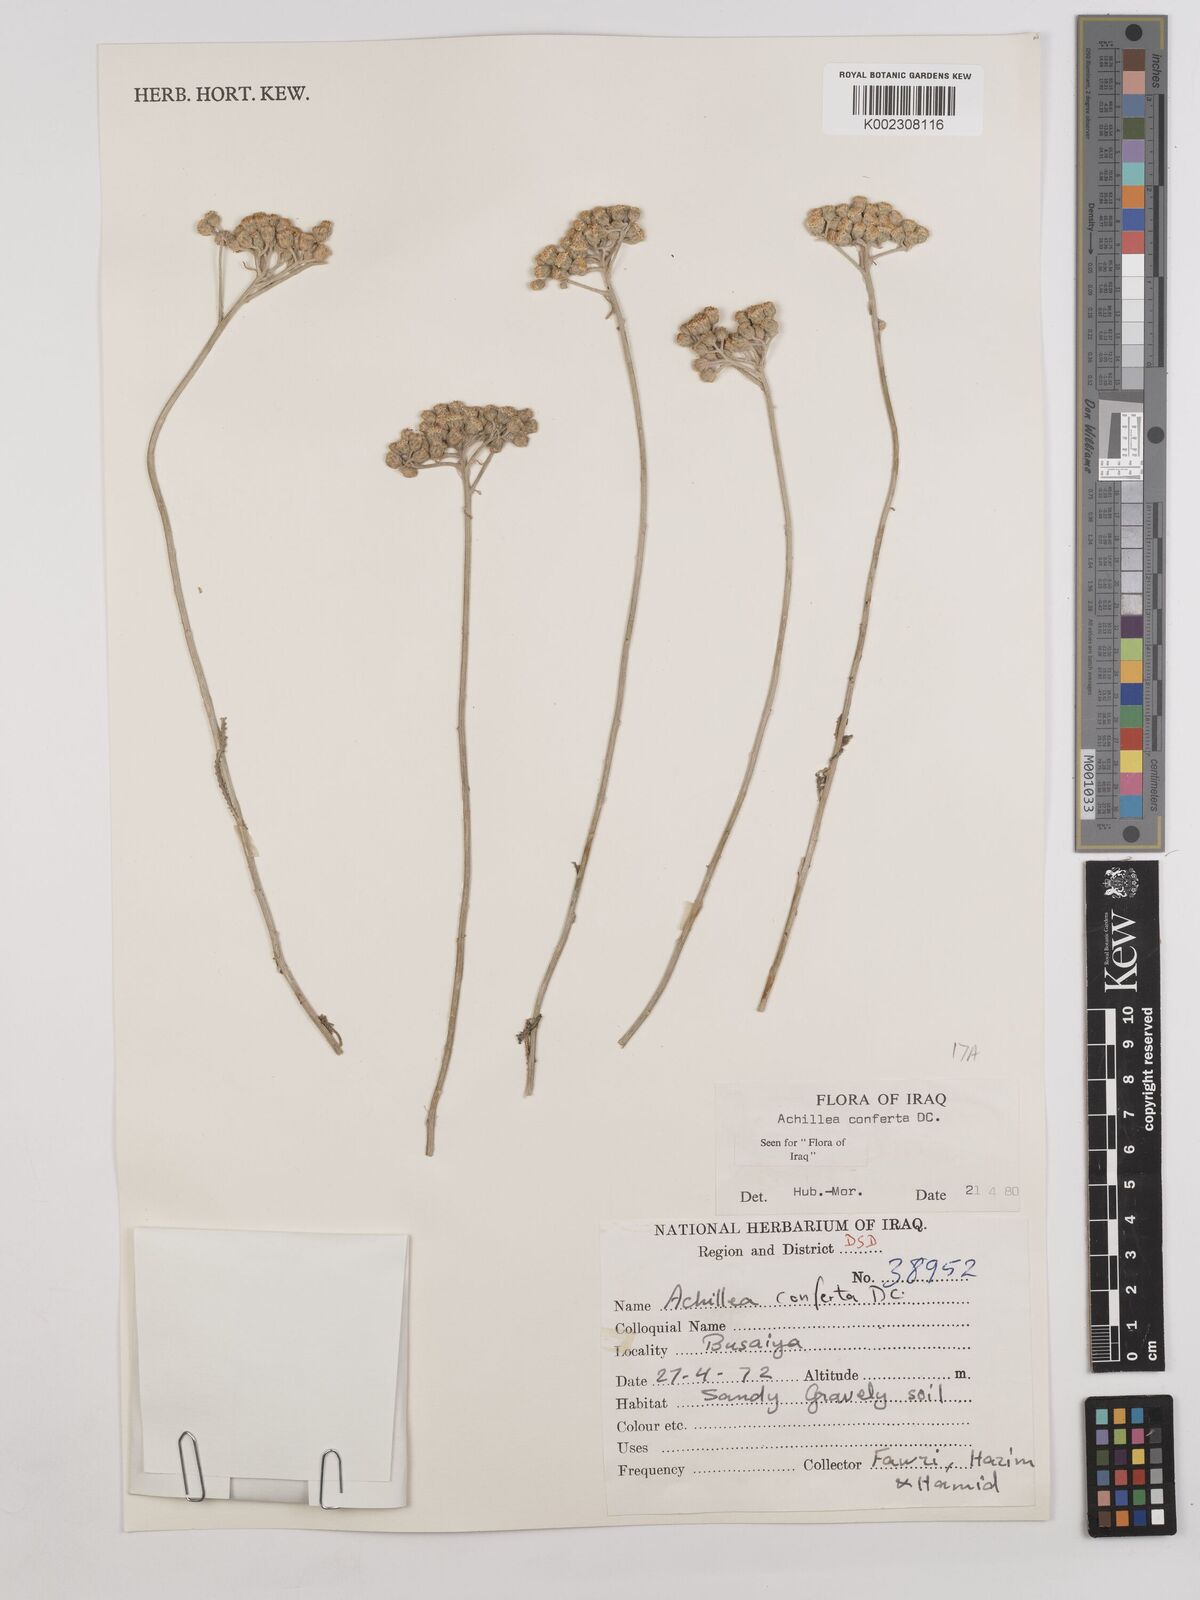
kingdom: Plantae
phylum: Tracheophyta
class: Magnoliopsida
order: Asterales
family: Asteraceae
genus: Achillea
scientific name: Achillea conferta
